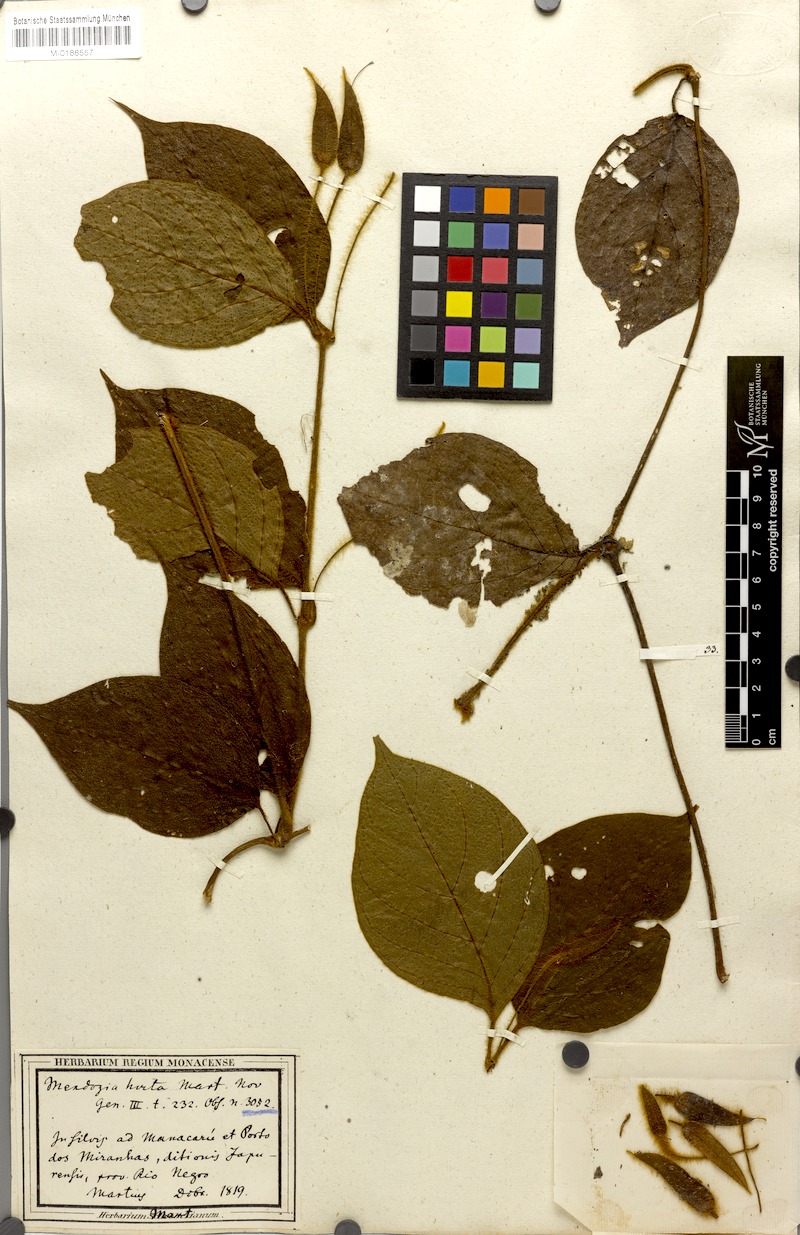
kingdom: Plantae
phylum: Tracheophyta
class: Magnoliopsida
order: Lamiales
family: Acanthaceae
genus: Mendoncia
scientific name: Mendoncia pilosa
